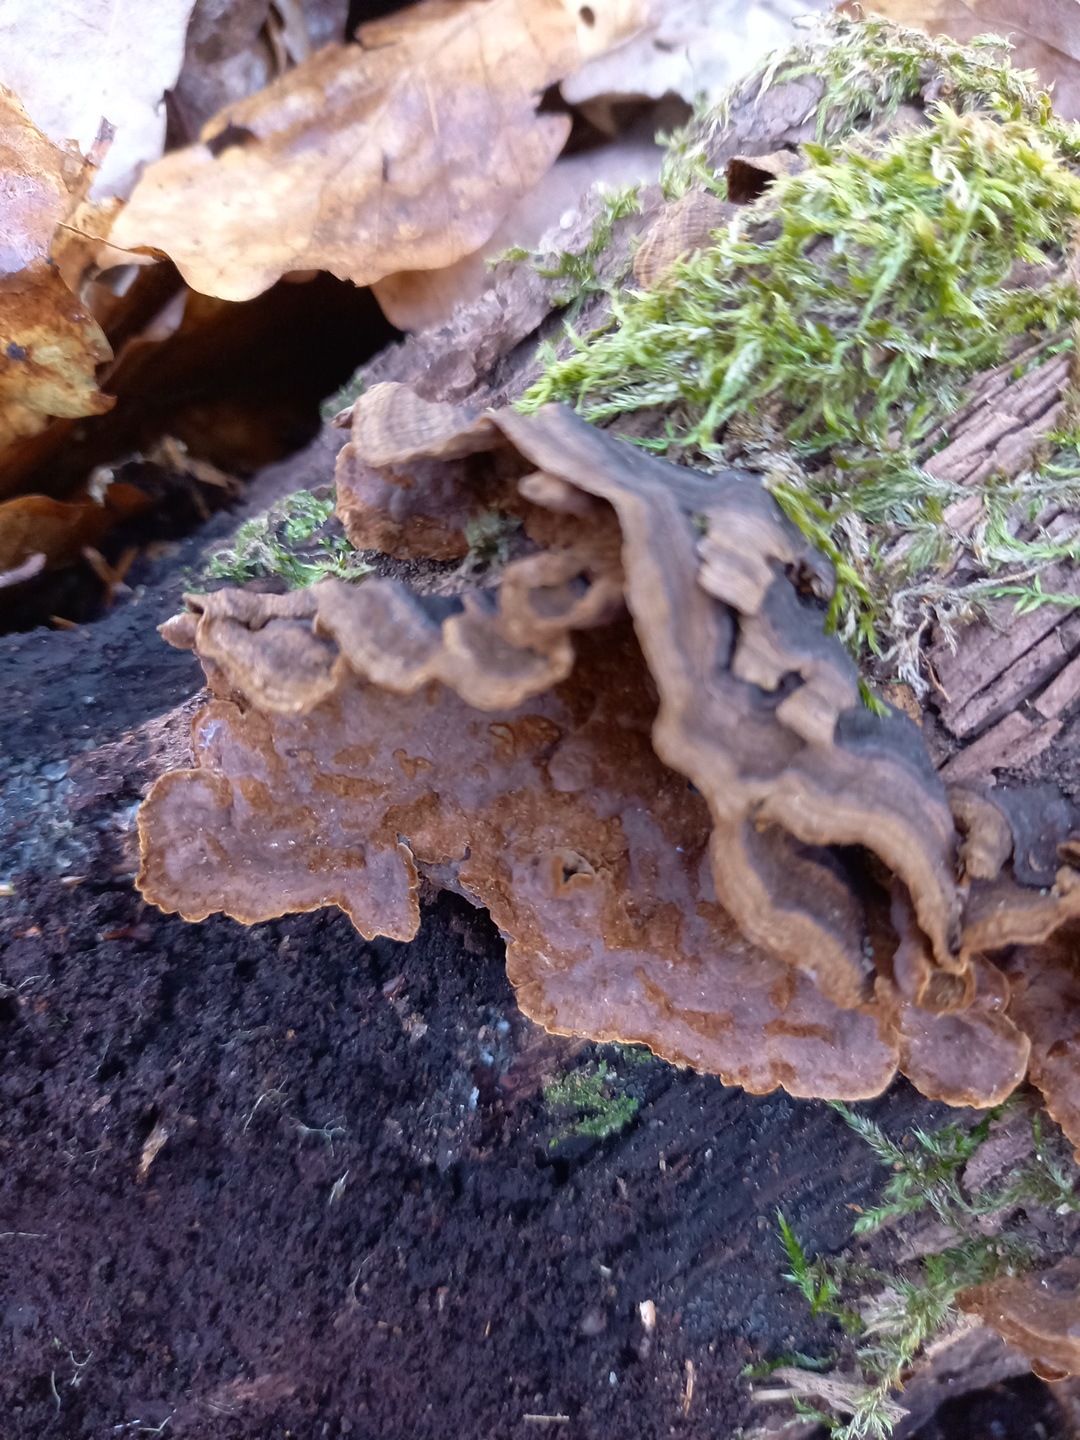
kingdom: Fungi
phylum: Basidiomycota
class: Agaricomycetes
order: Hymenochaetales
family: Hymenochaetaceae
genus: Hymenochaete
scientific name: Hymenochaete rubiginosa
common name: stiv ruslædersvamp
